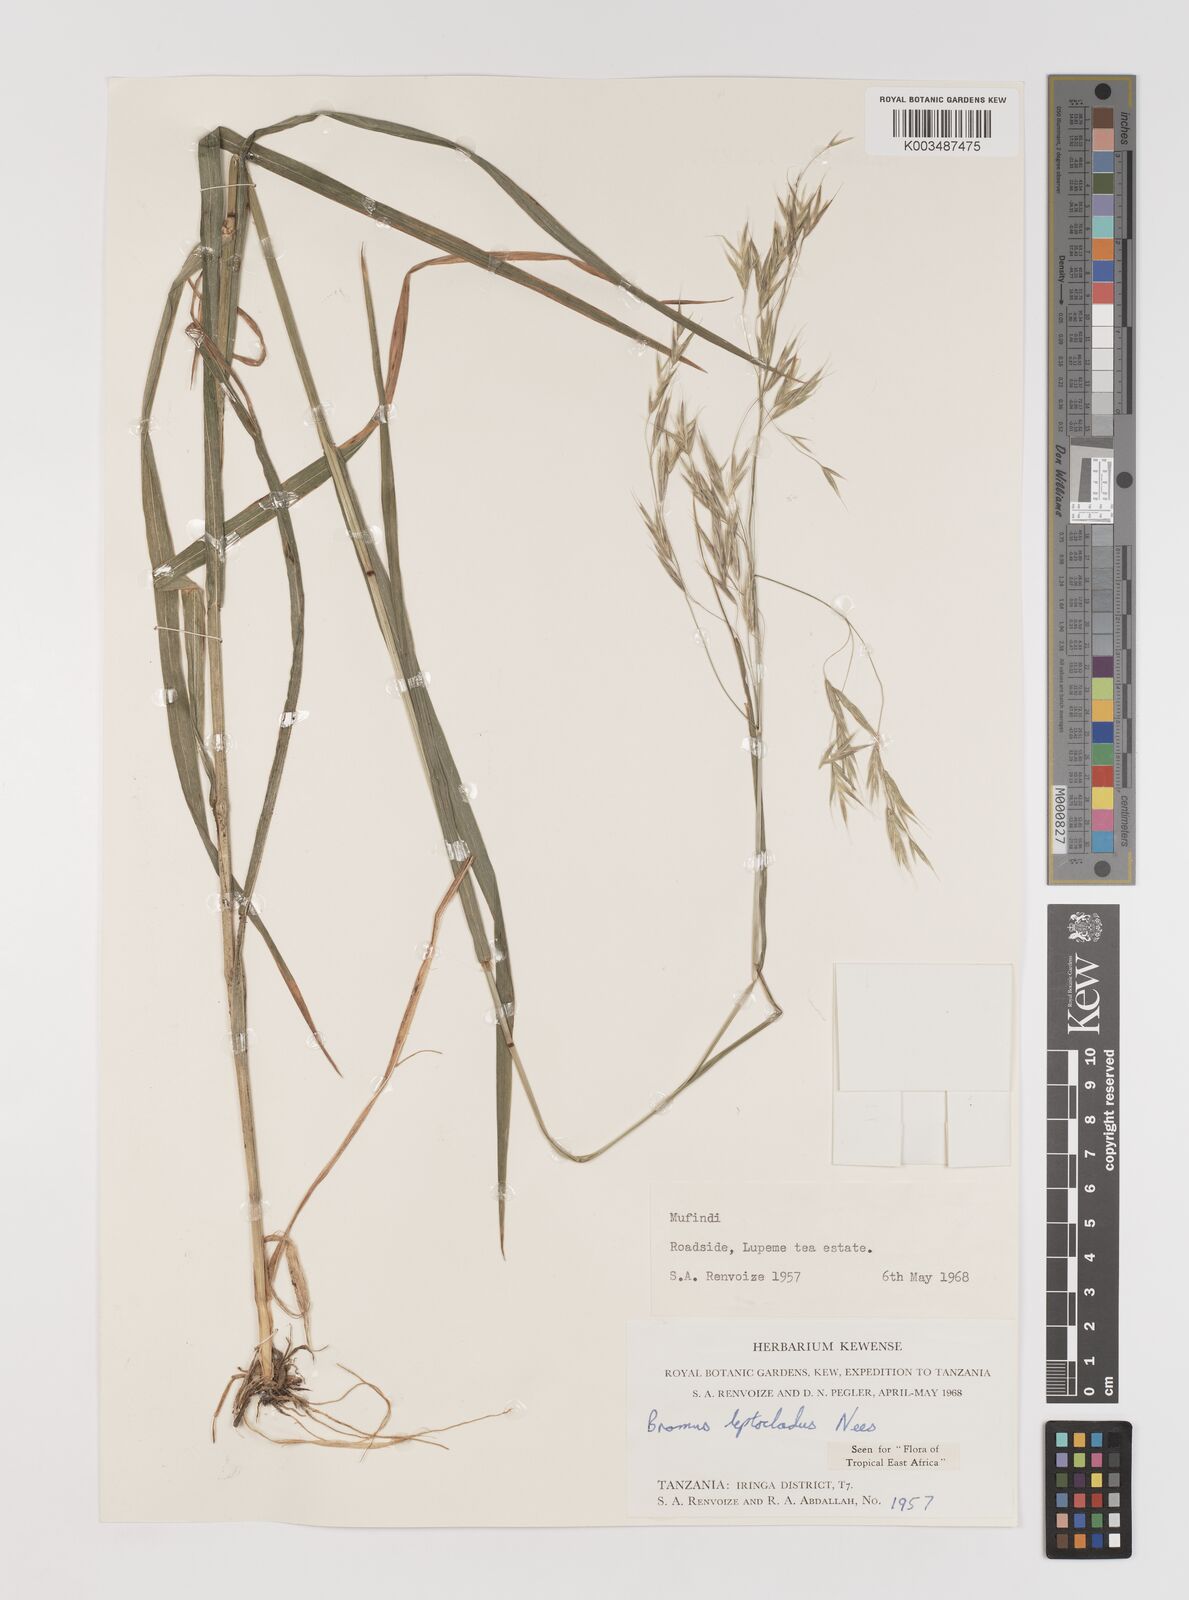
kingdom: Plantae
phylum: Tracheophyta
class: Liliopsida
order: Poales
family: Poaceae
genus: Bromus
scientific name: Bromus leptoclados
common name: Mountain bromegrass
